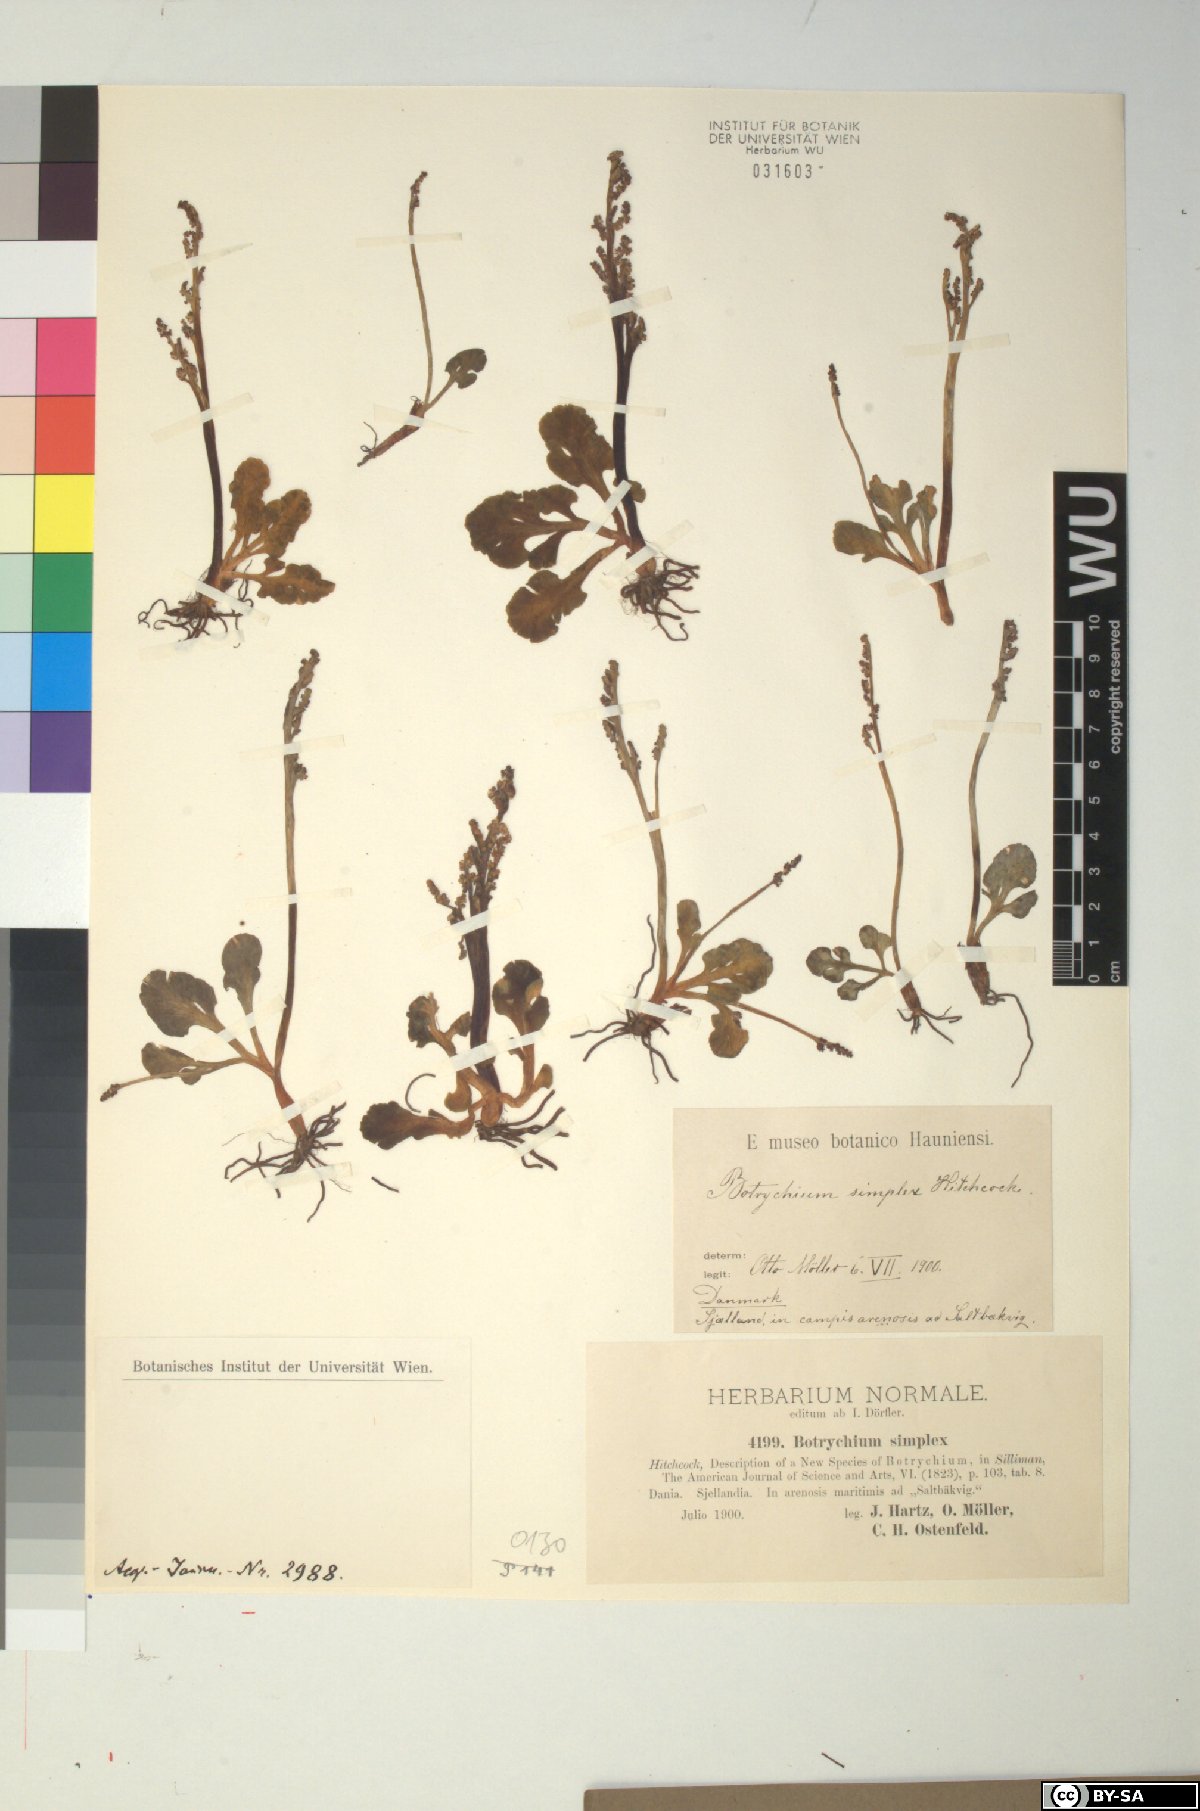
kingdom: Plantae
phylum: Tracheophyta
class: Polypodiopsida
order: Ophioglossales
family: Ophioglossaceae
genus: Botrychium
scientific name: Botrychium simplex
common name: Least moonwort
